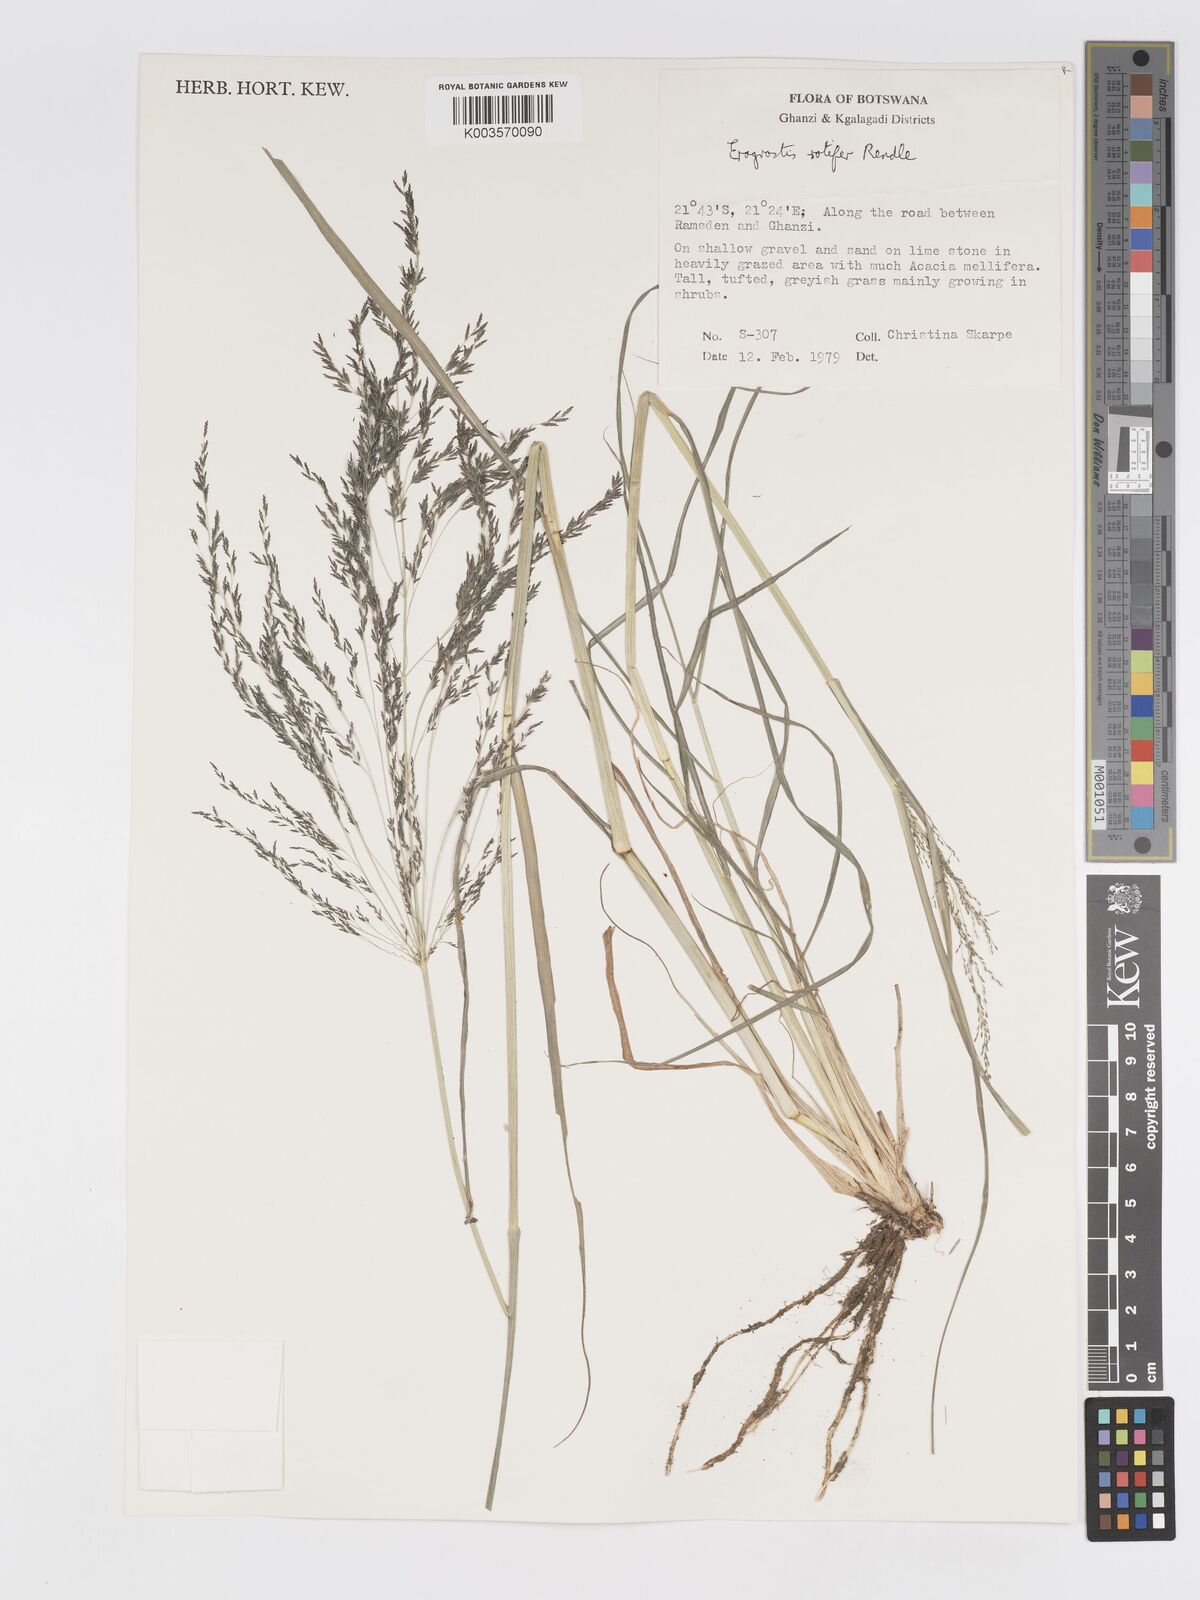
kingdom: Plantae
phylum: Tracheophyta
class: Liliopsida
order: Poales
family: Poaceae
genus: Eragrostis
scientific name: Eragrostis rotifer
